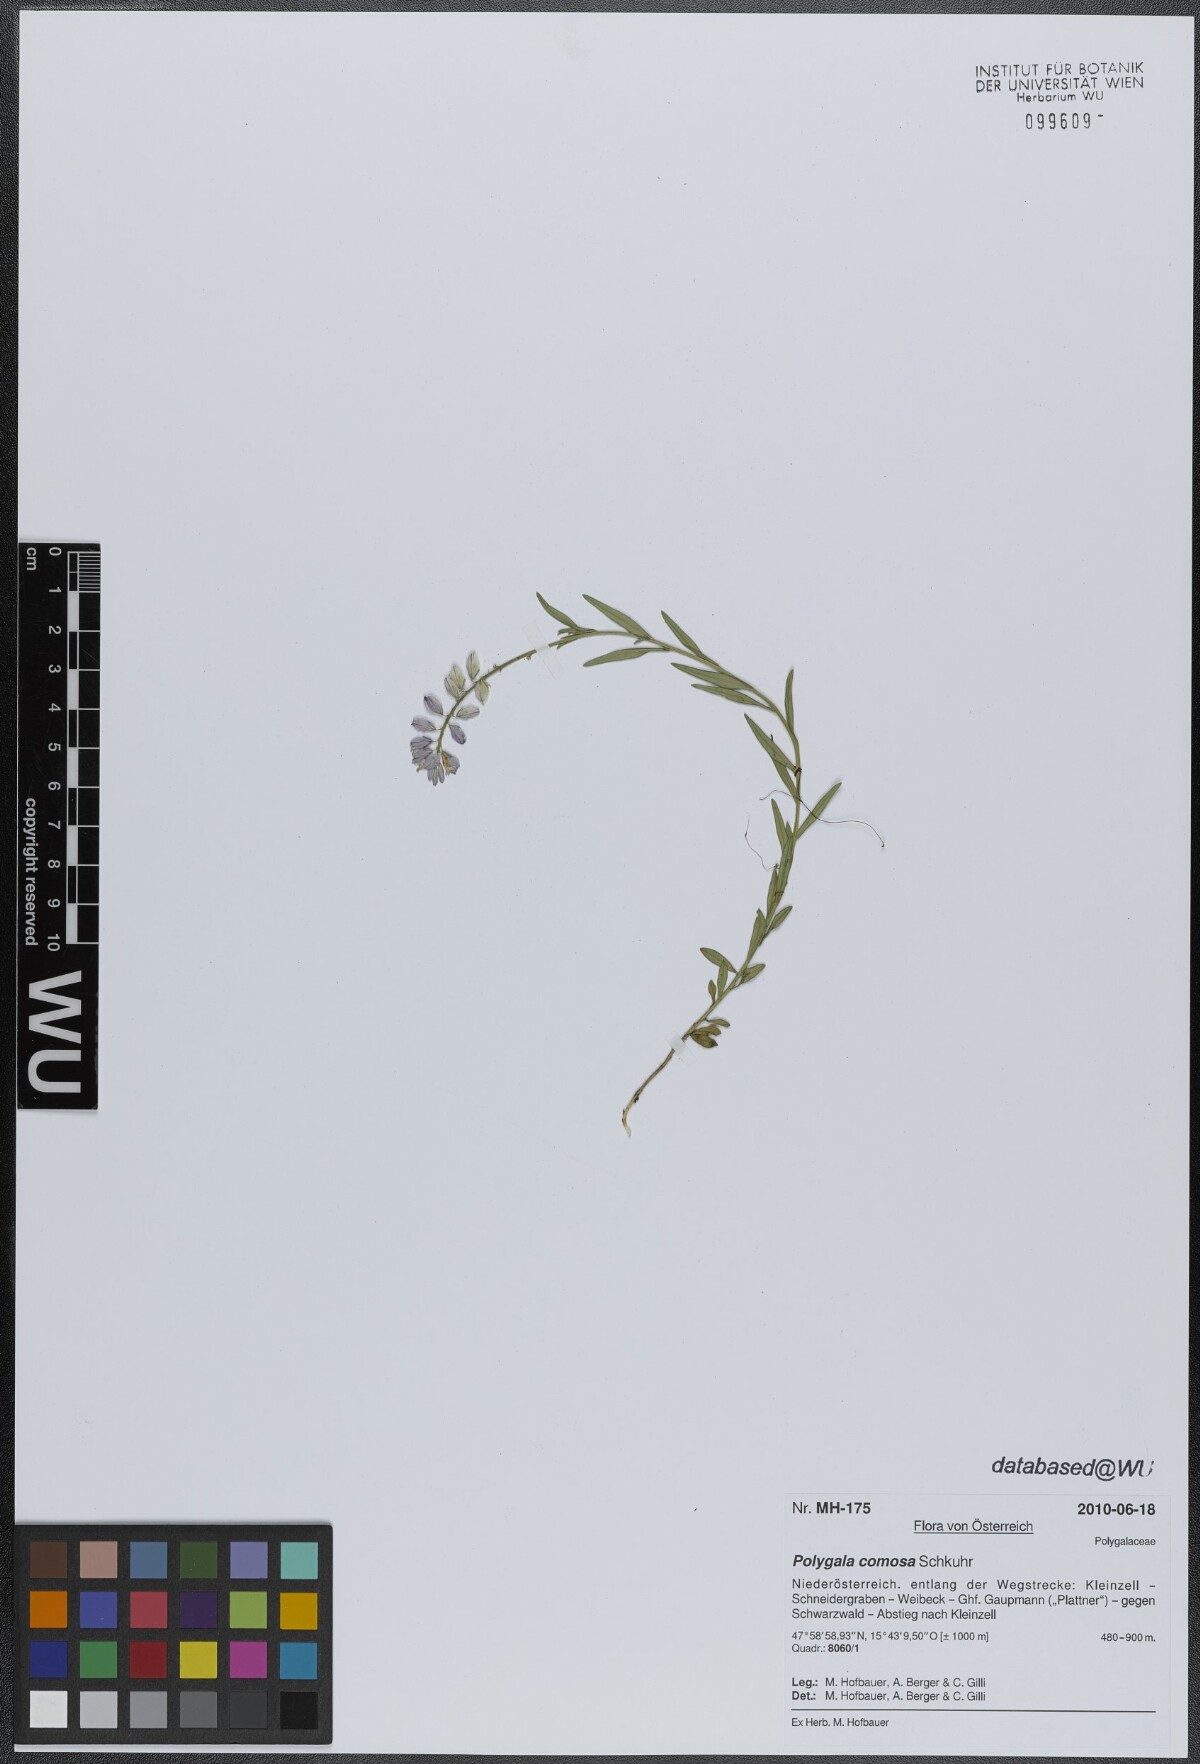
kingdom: Plantae
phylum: Tracheophyta
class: Magnoliopsida
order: Fabales
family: Polygalaceae
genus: Polygala
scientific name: Polygala comosa
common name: Tufted milkwort
